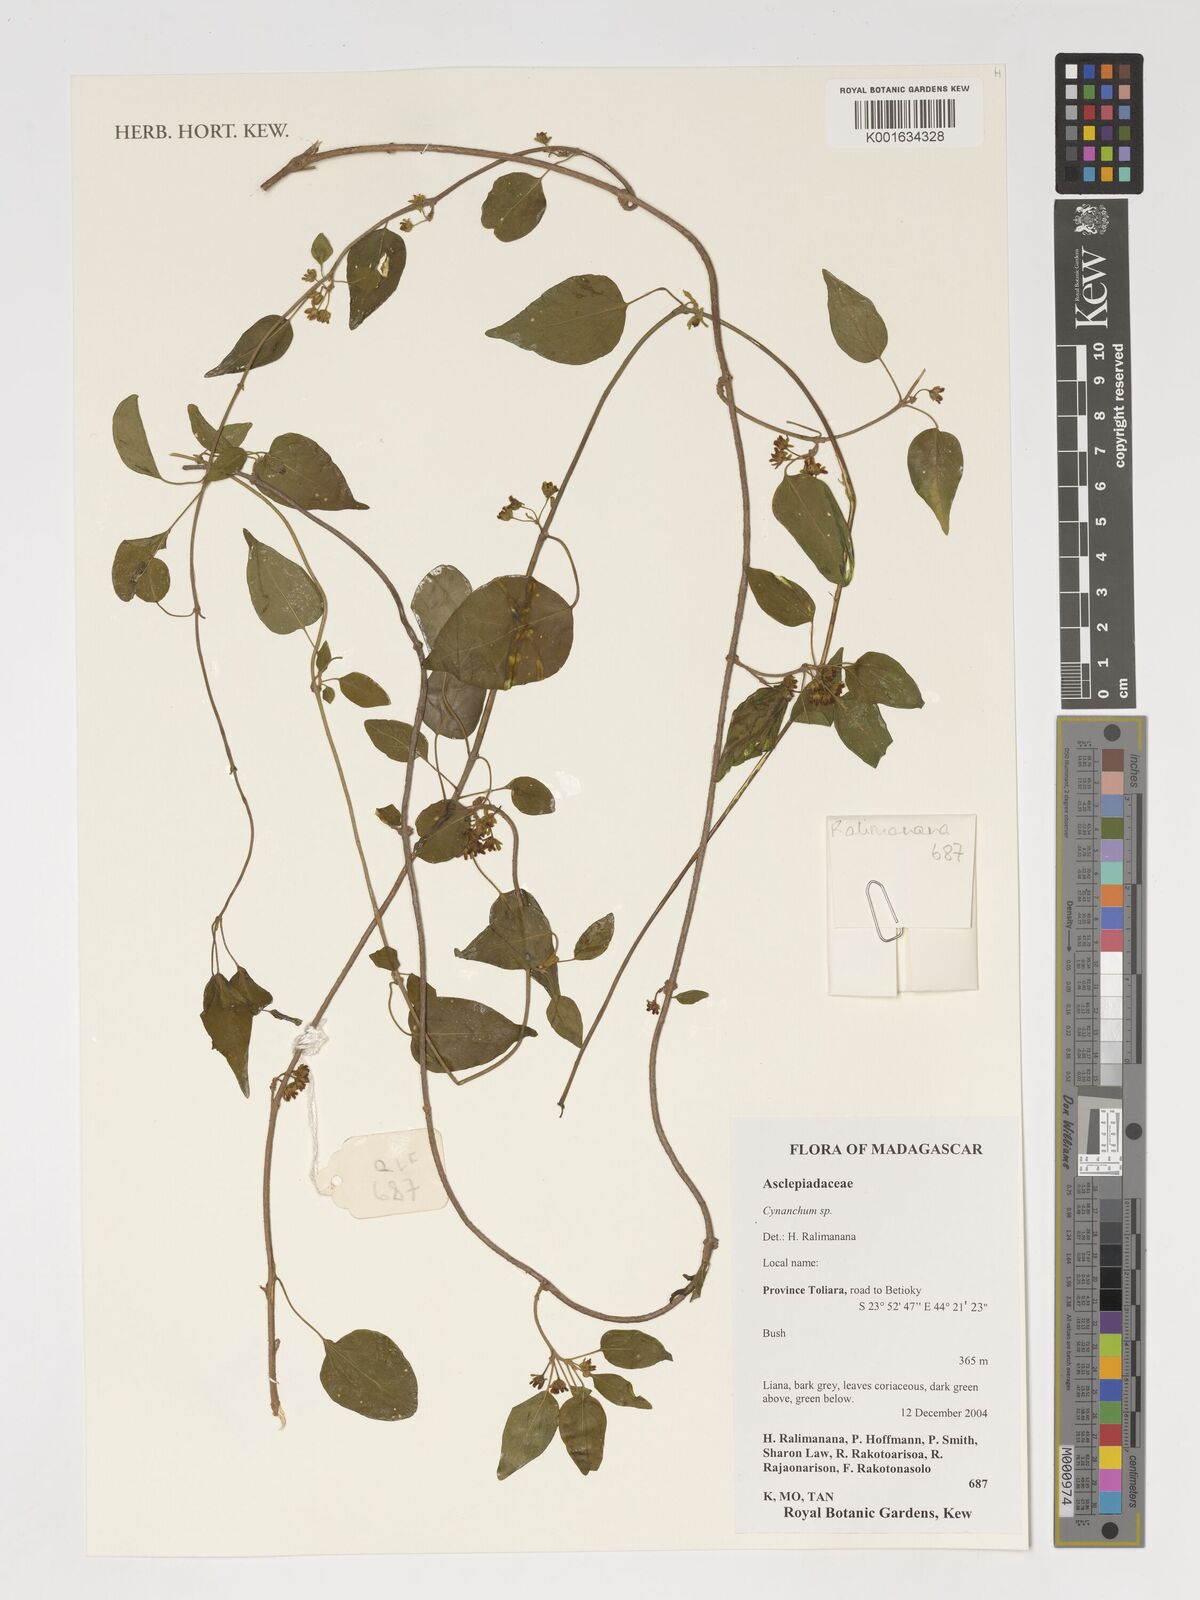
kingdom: Plantae
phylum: Tracheophyta
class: Magnoliopsida
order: Gentianales
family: Apocynaceae
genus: Cynanchum
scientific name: Cynanchum
